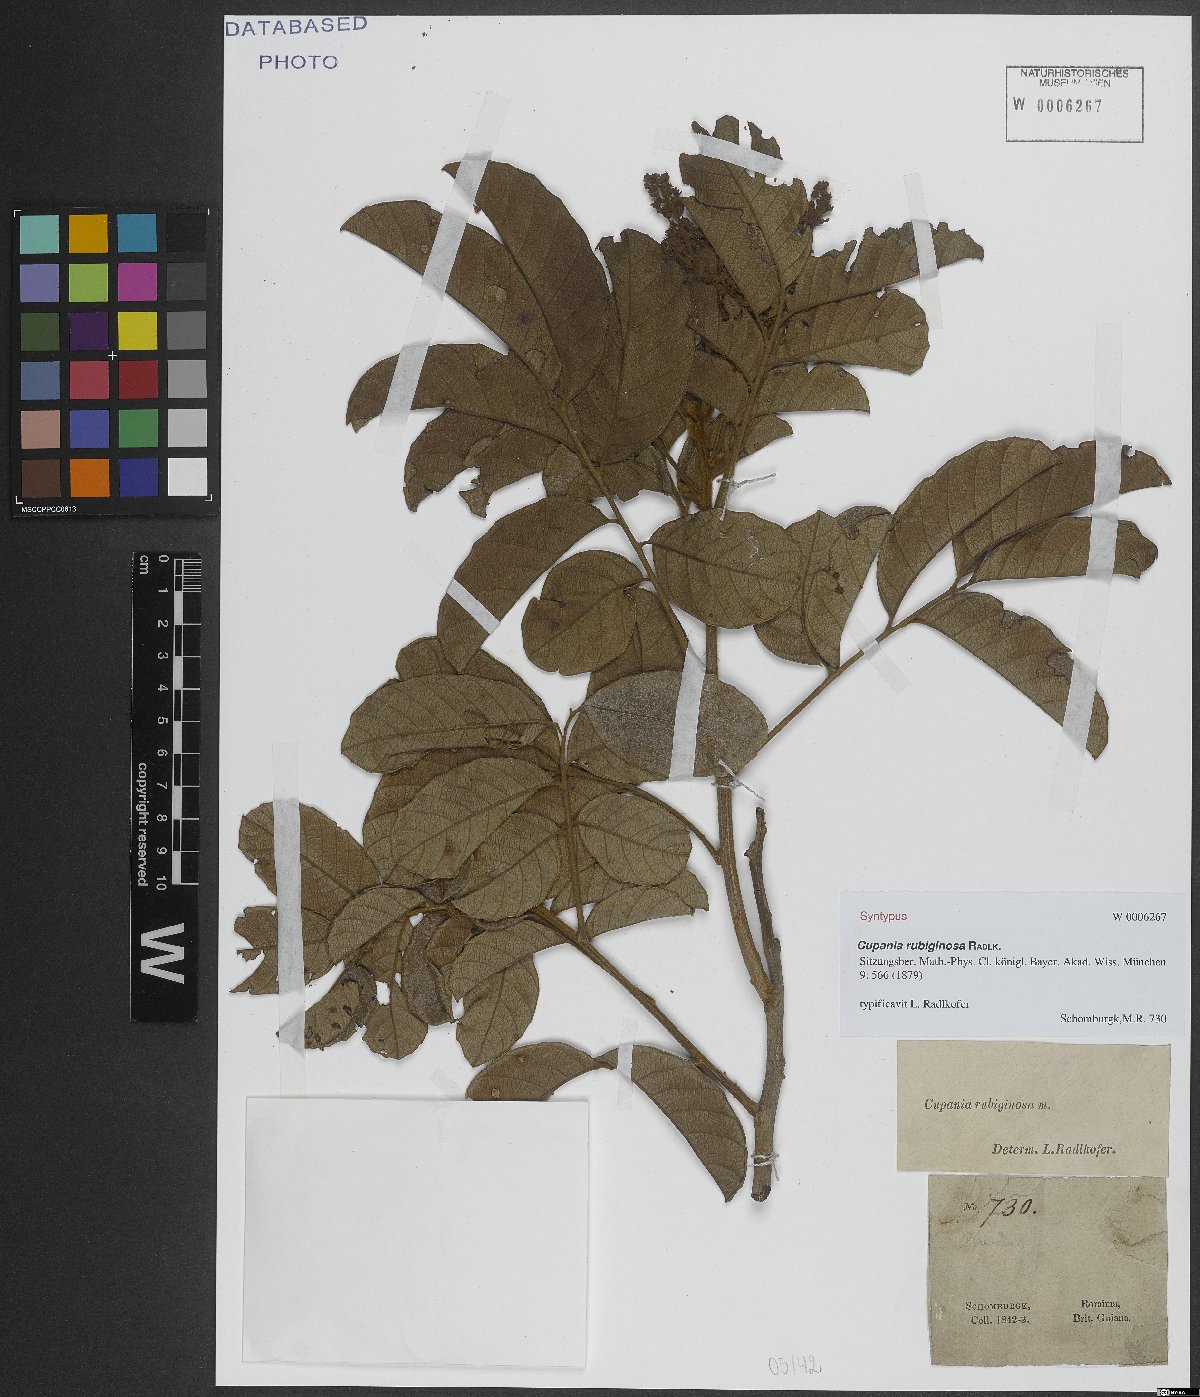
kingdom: Plantae
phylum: Tracheophyta
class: Magnoliopsida
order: Sapindales
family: Sapindaceae
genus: Cupania
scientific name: Cupania rubiginosa
